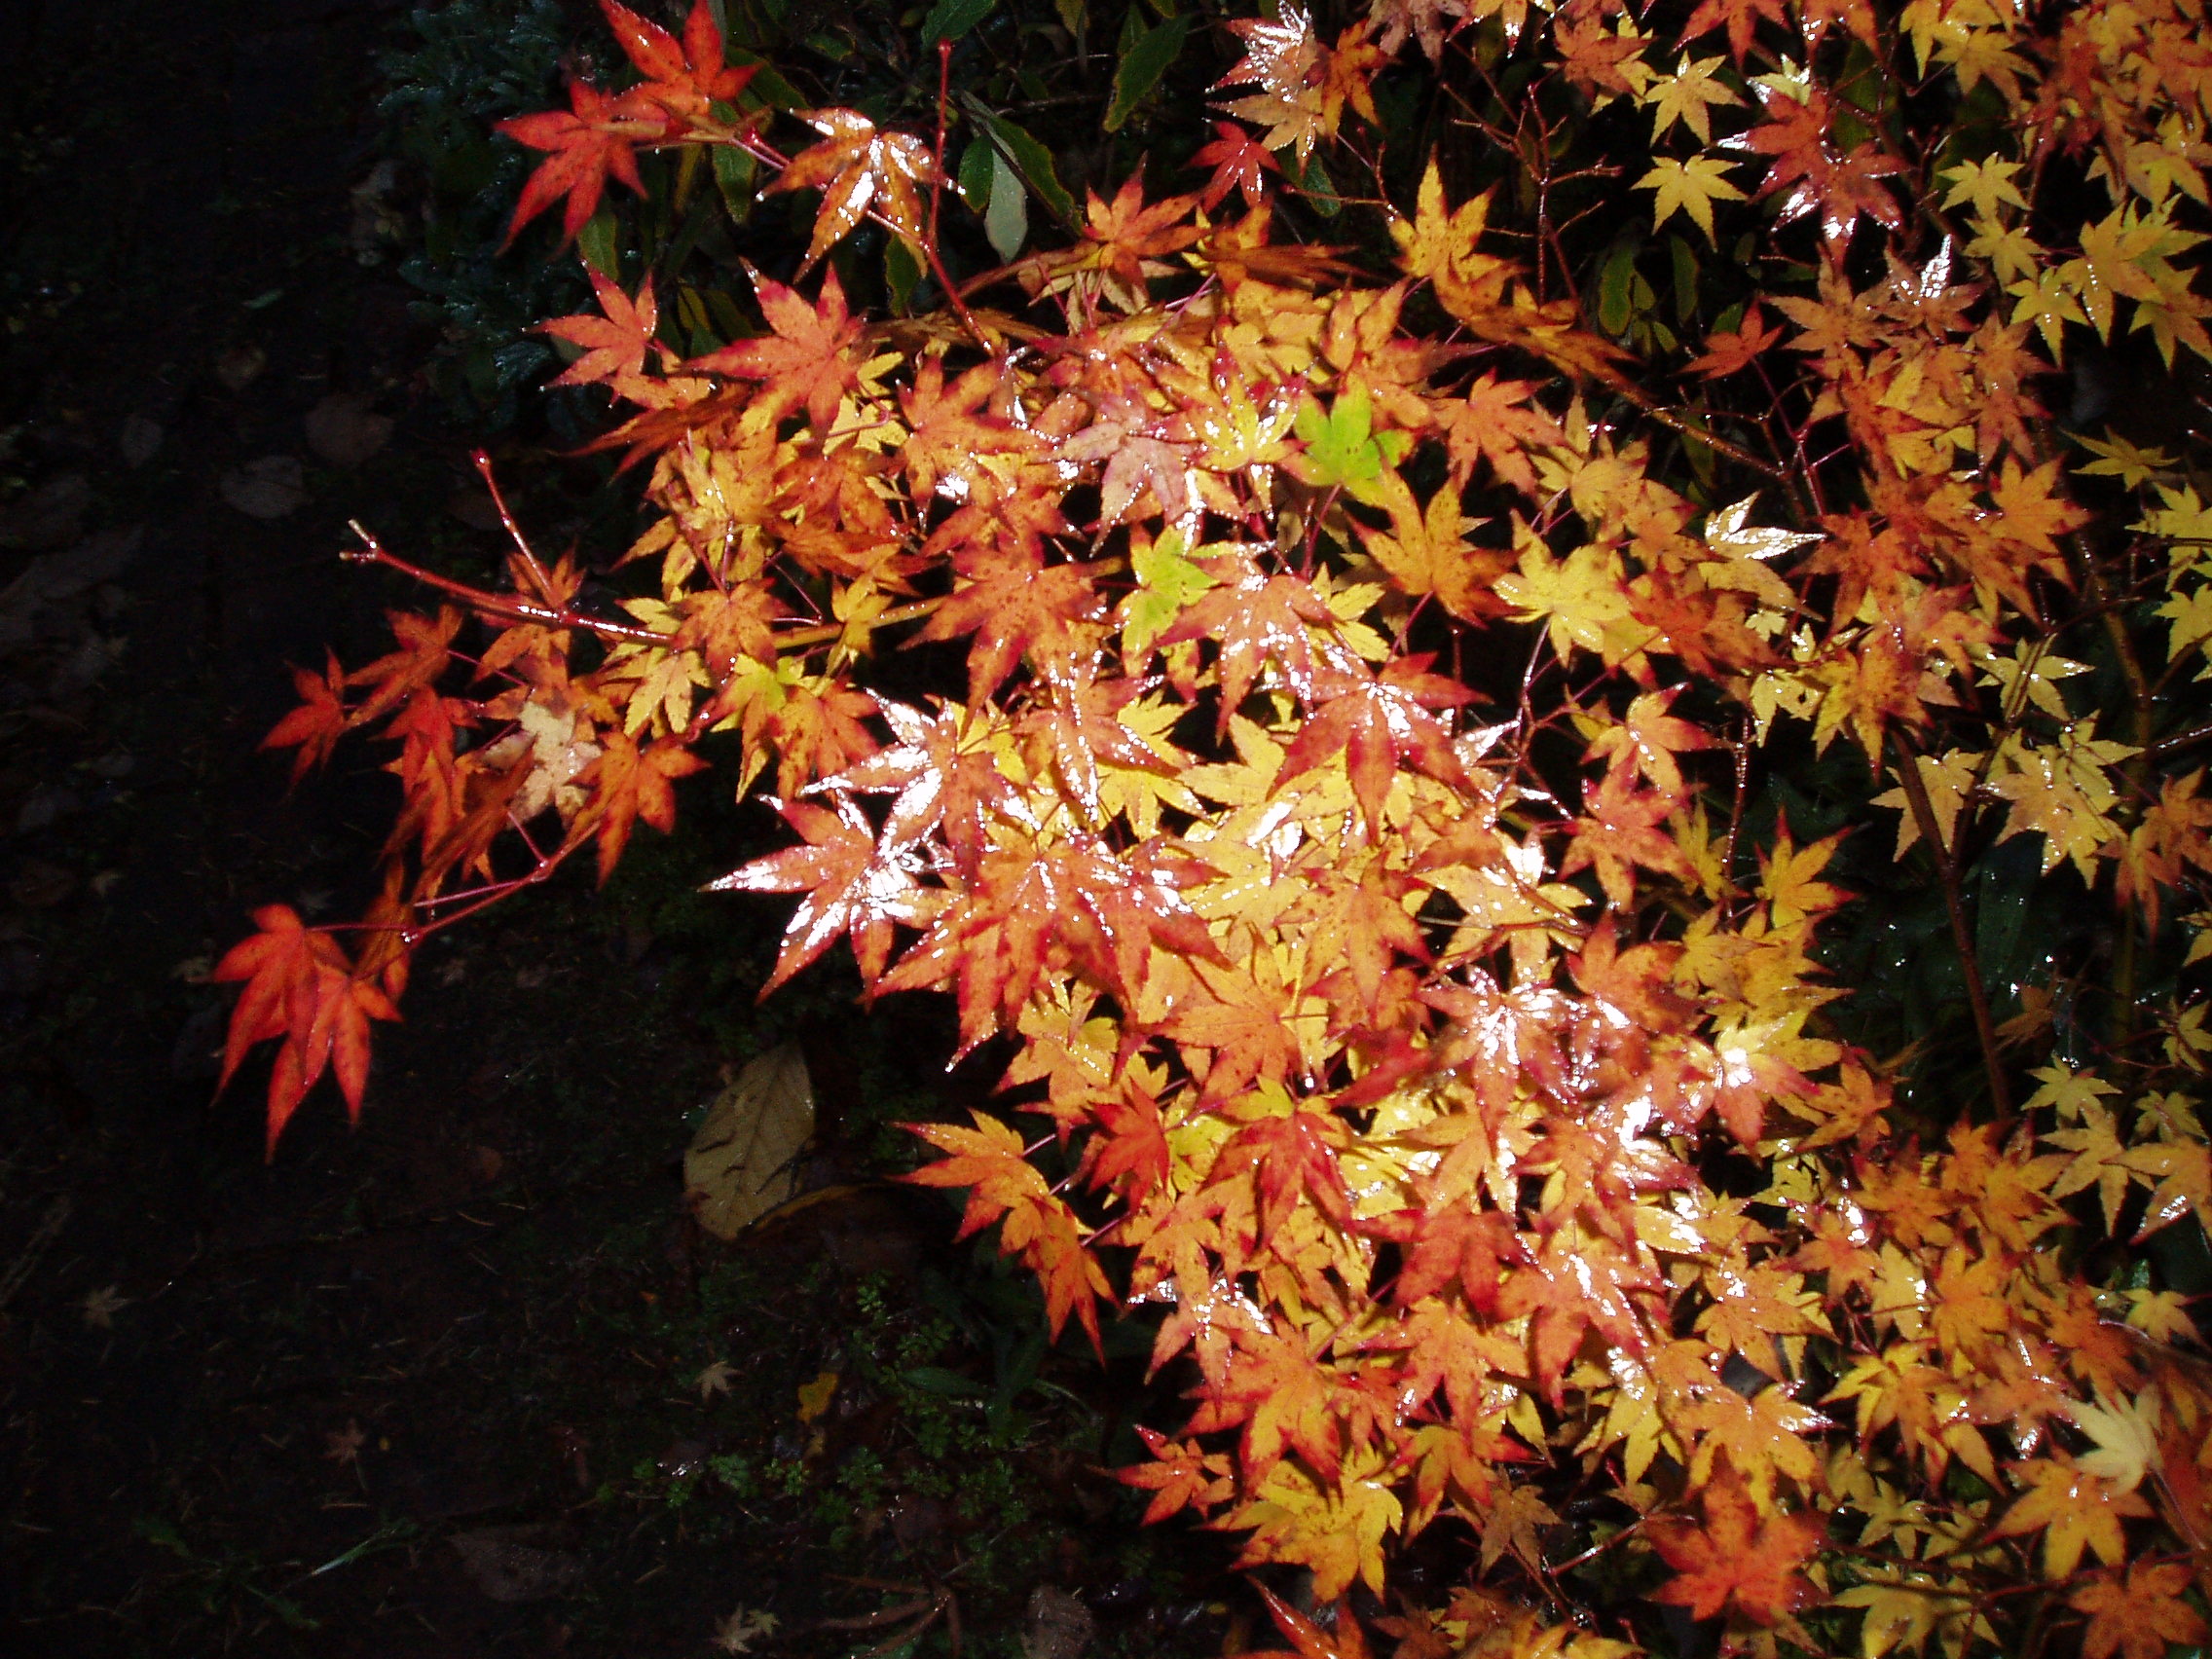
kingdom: Plantae
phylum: Tracheophyta
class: Magnoliopsida
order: Sapindales
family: Sapindaceae
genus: Acer
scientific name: Acer palmatum
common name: Japanese maple
